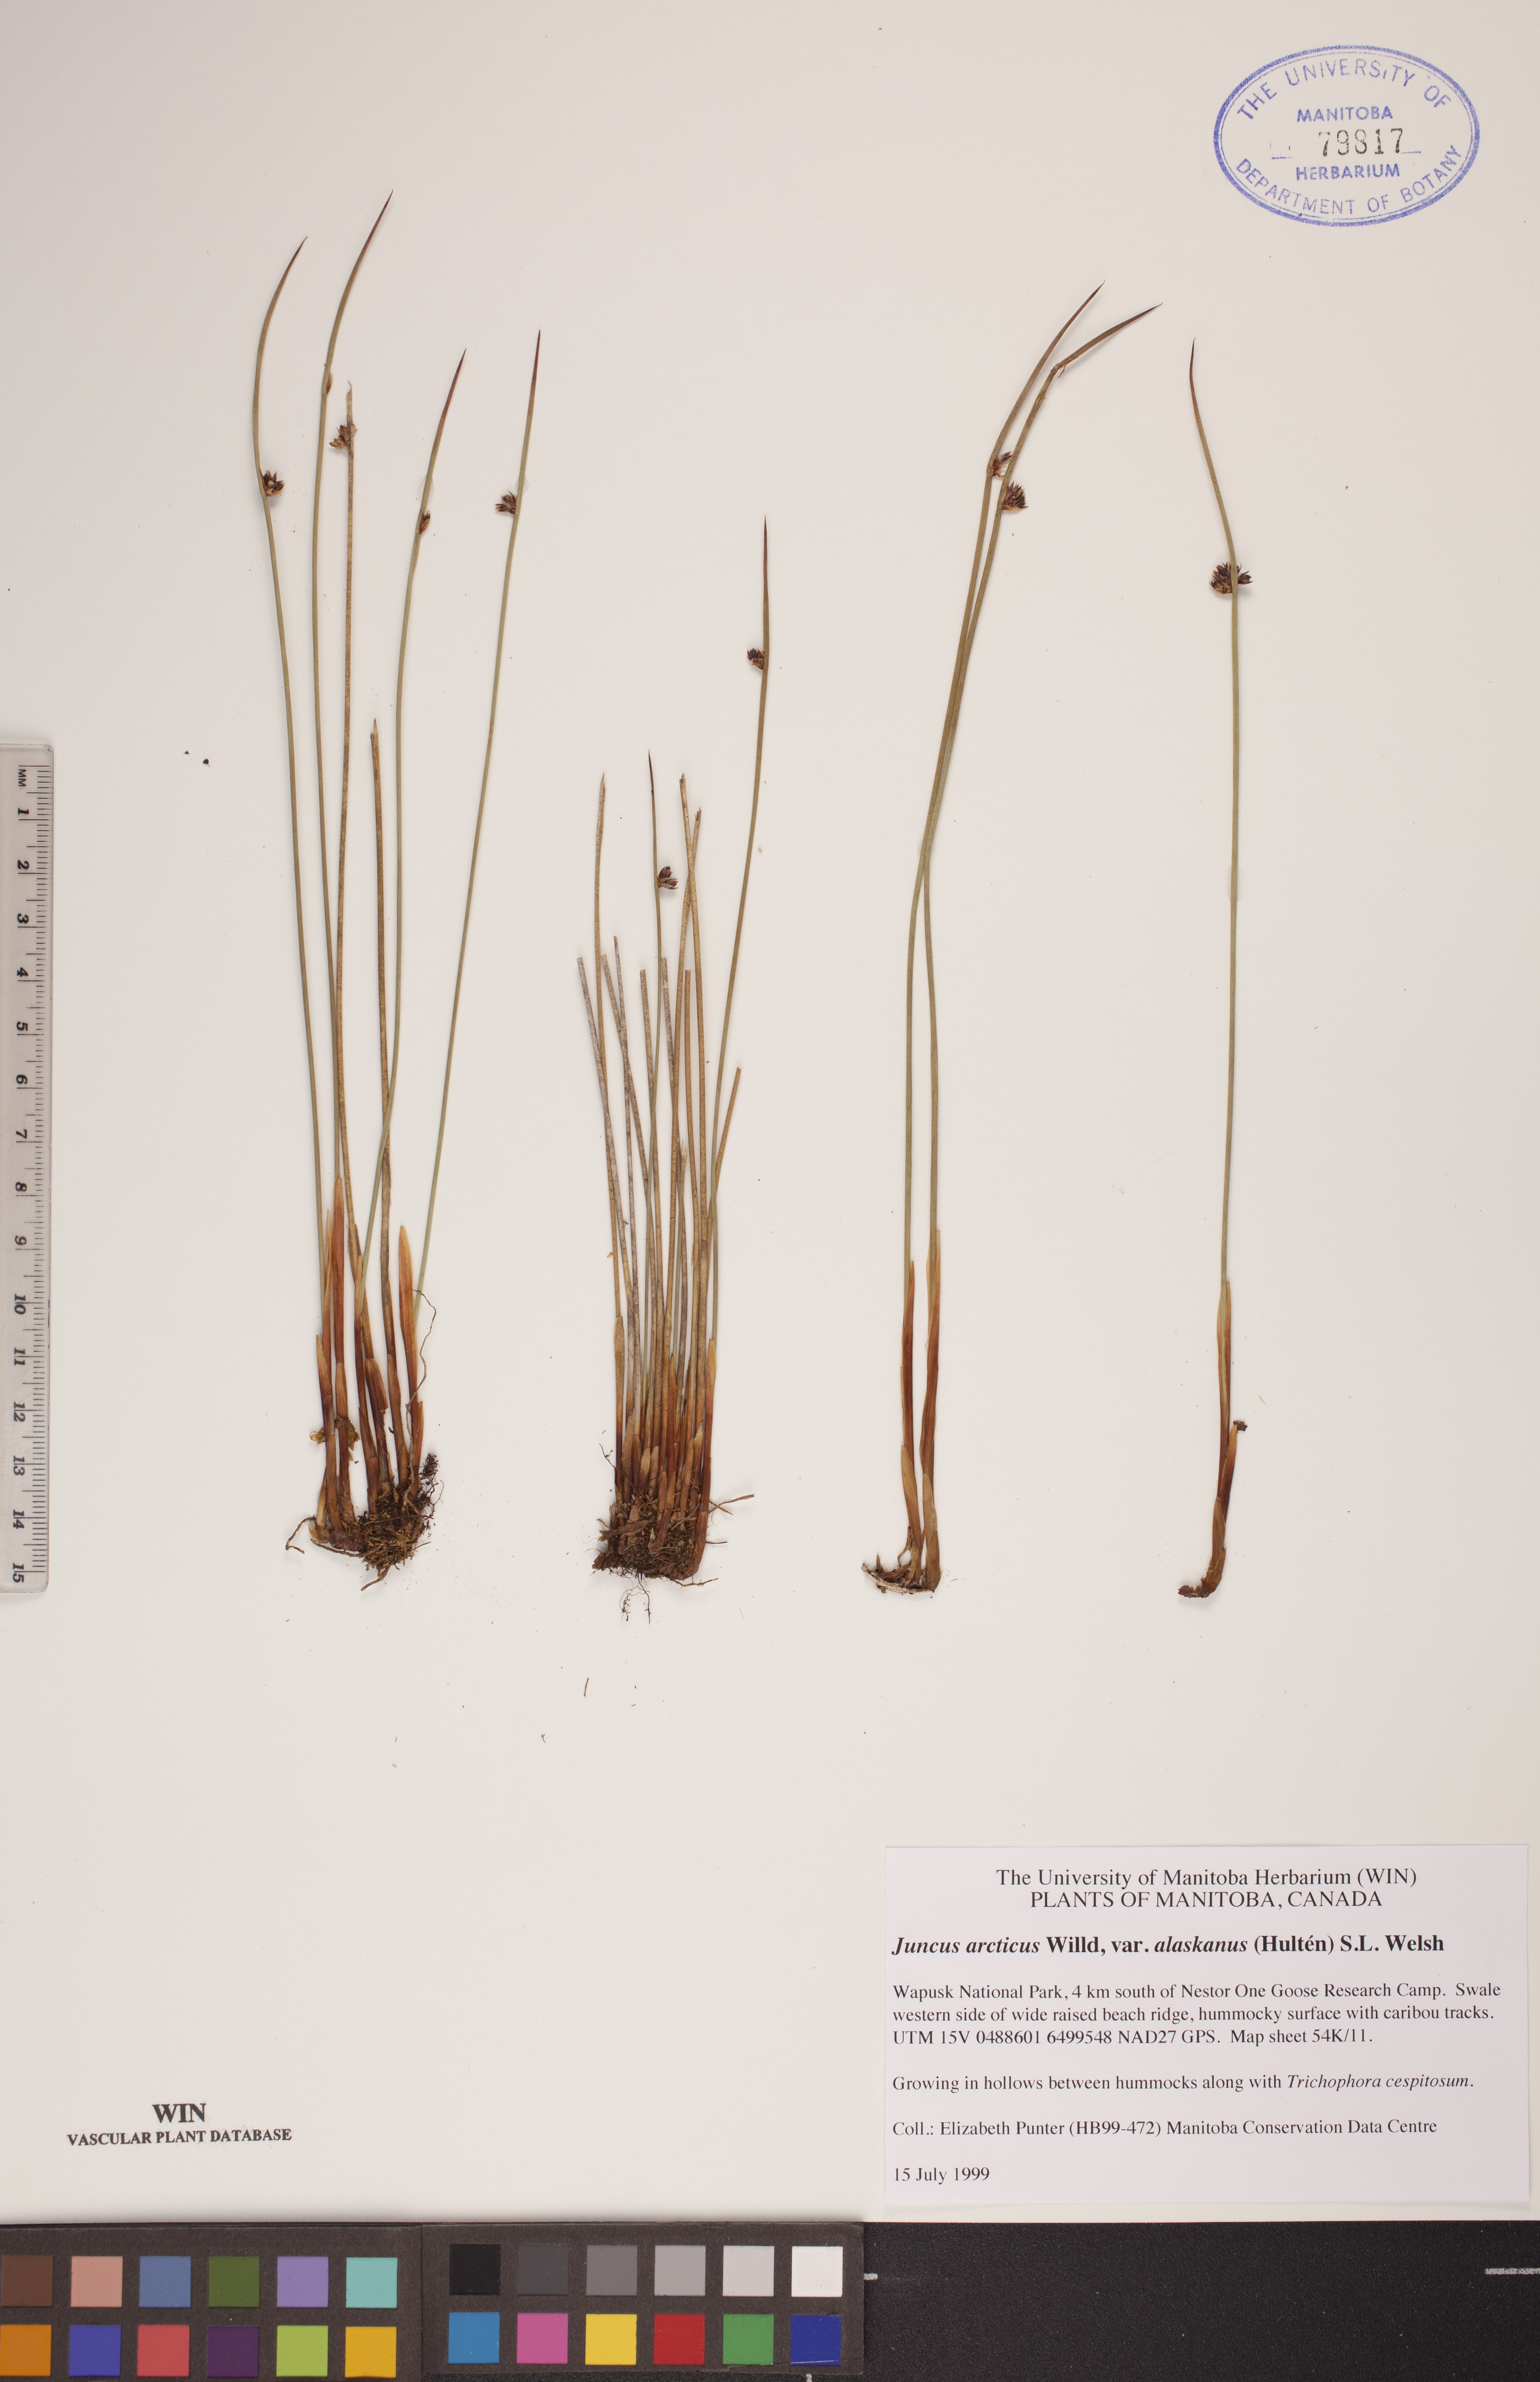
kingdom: Plantae
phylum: Tracheophyta
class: Liliopsida
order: Poales
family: Juncaceae
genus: Juncus
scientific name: Juncus arcticus
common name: Arctic rush
